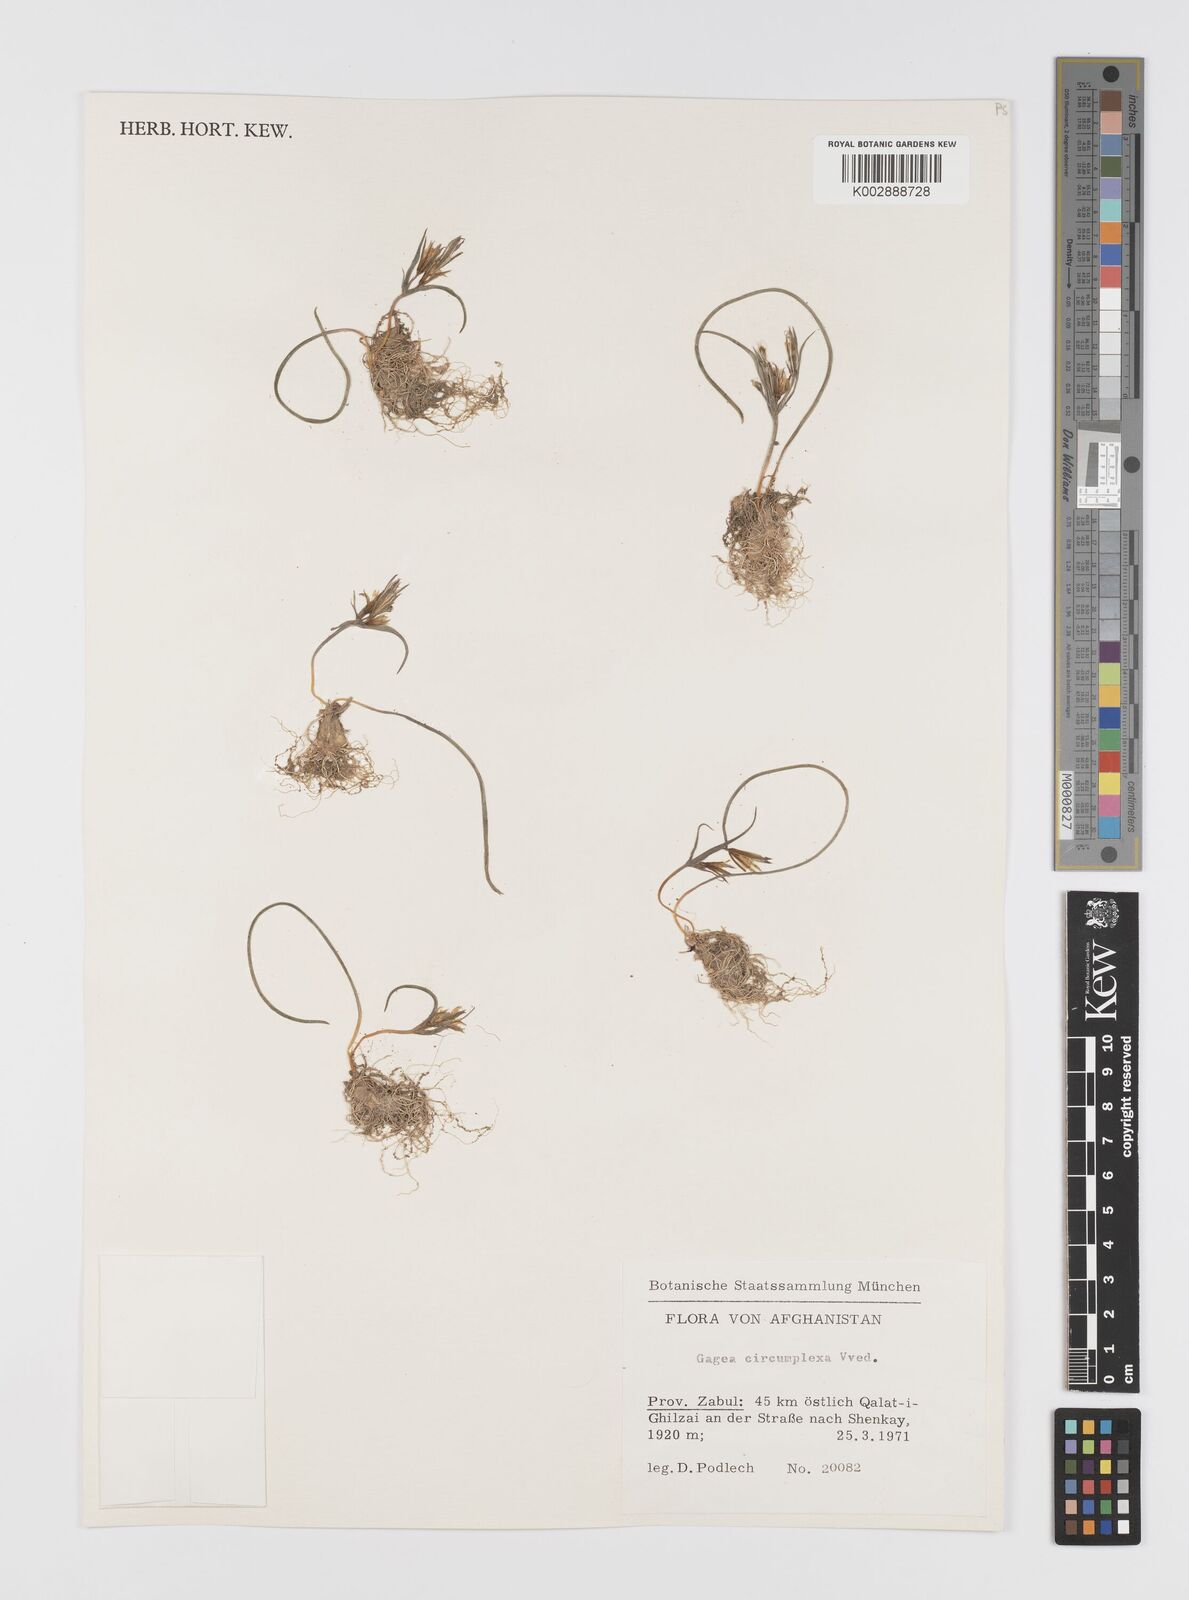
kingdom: Plantae
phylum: Tracheophyta
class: Liliopsida
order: Liliales
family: Liliaceae
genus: Gagea
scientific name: Gagea circumplexa
